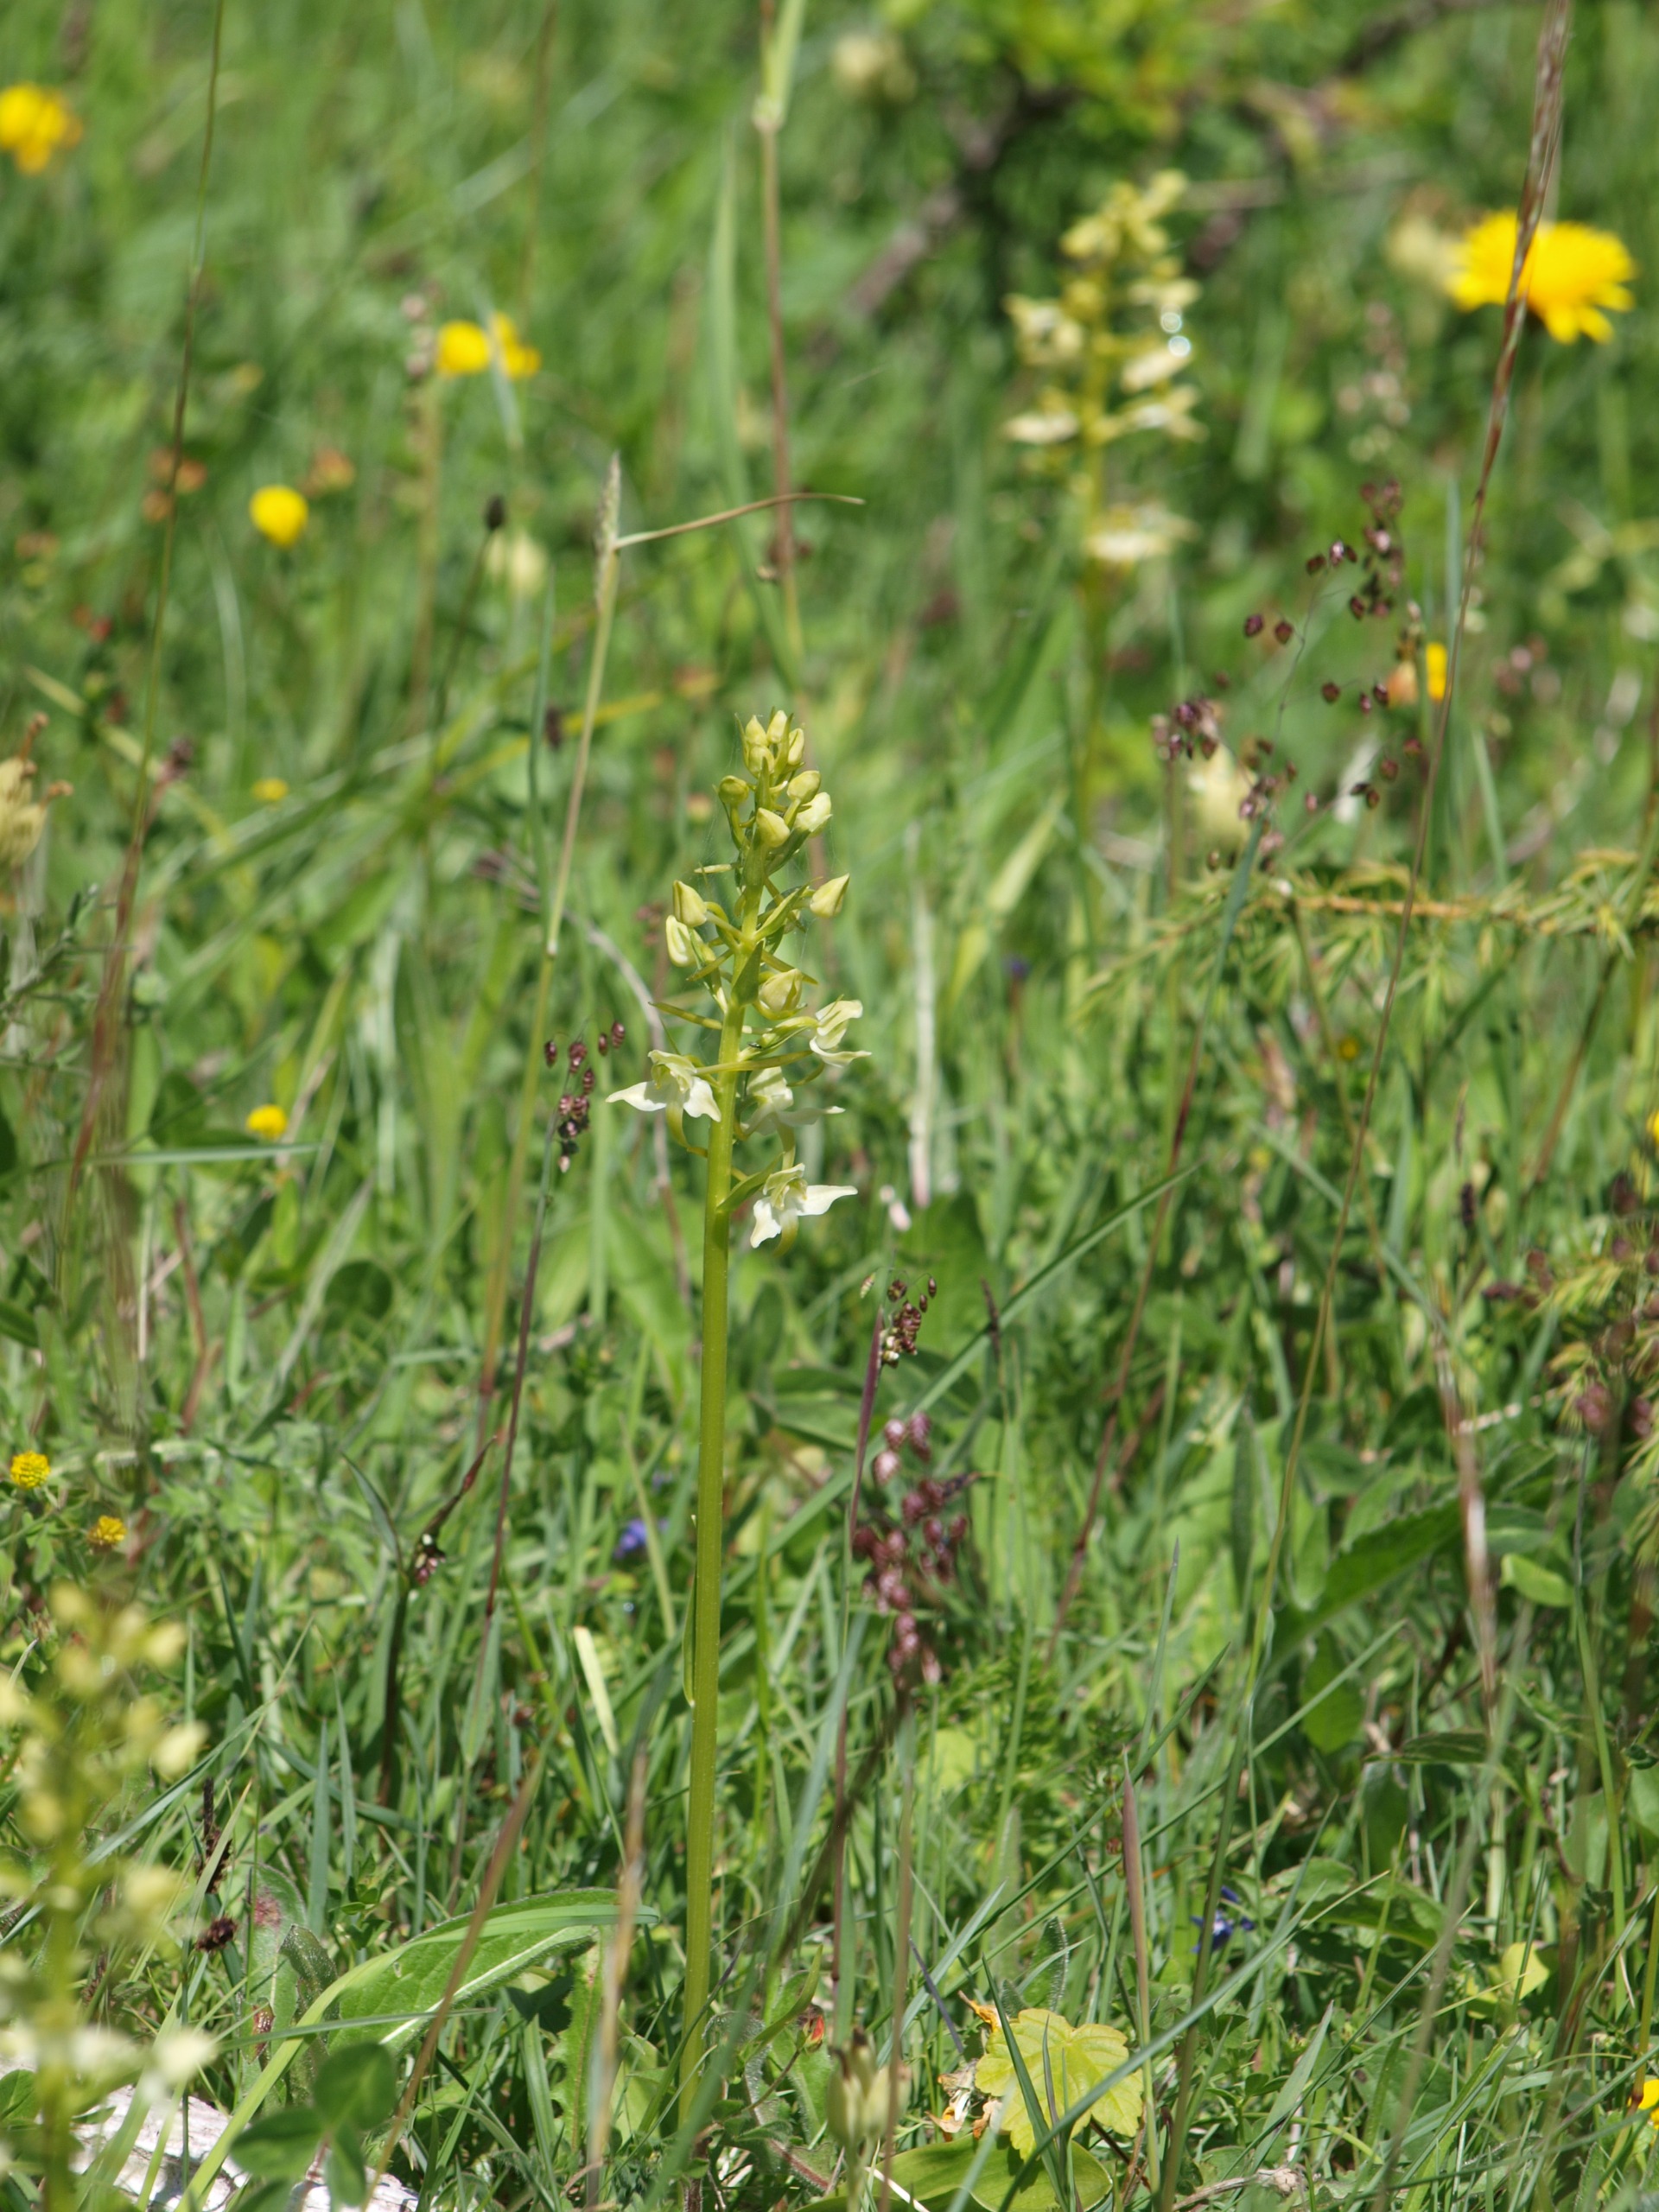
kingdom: Plantae
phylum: Tracheophyta
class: Liliopsida
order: Asparagales
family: Orchidaceae
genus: Platanthera
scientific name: Platanthera chlorantha
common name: Skov-gøgelilje
